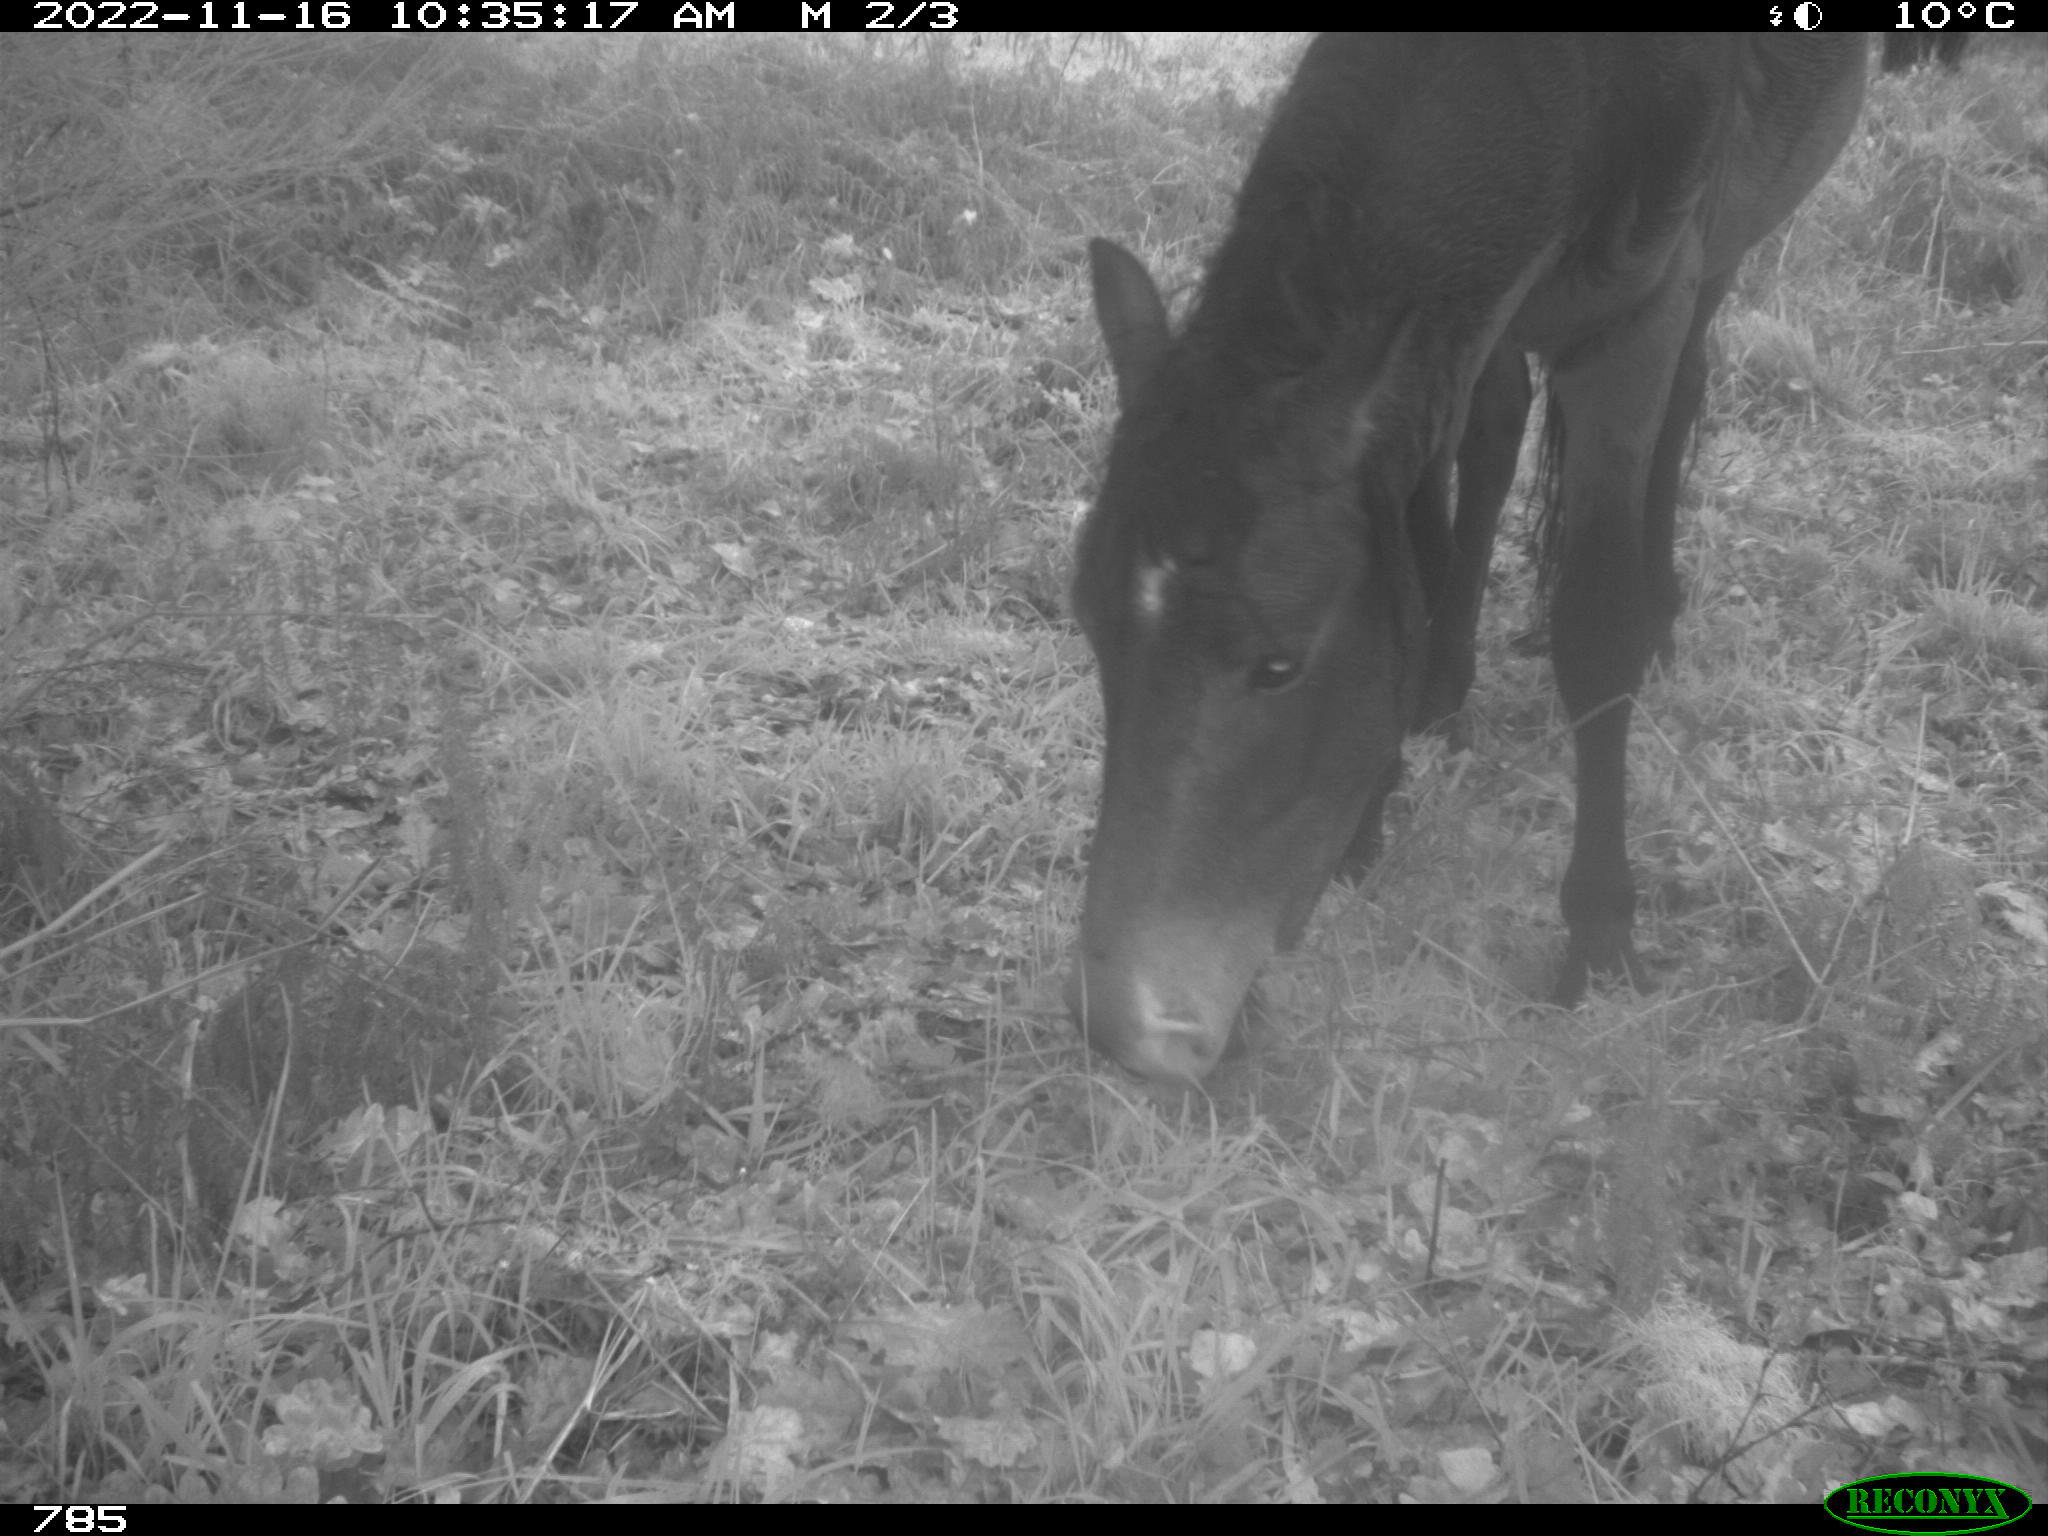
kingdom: Animalia
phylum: Chordata
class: Mammalia
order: Perissodactyla
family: Equidae
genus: Equus
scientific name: Equus caballus
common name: Horse
